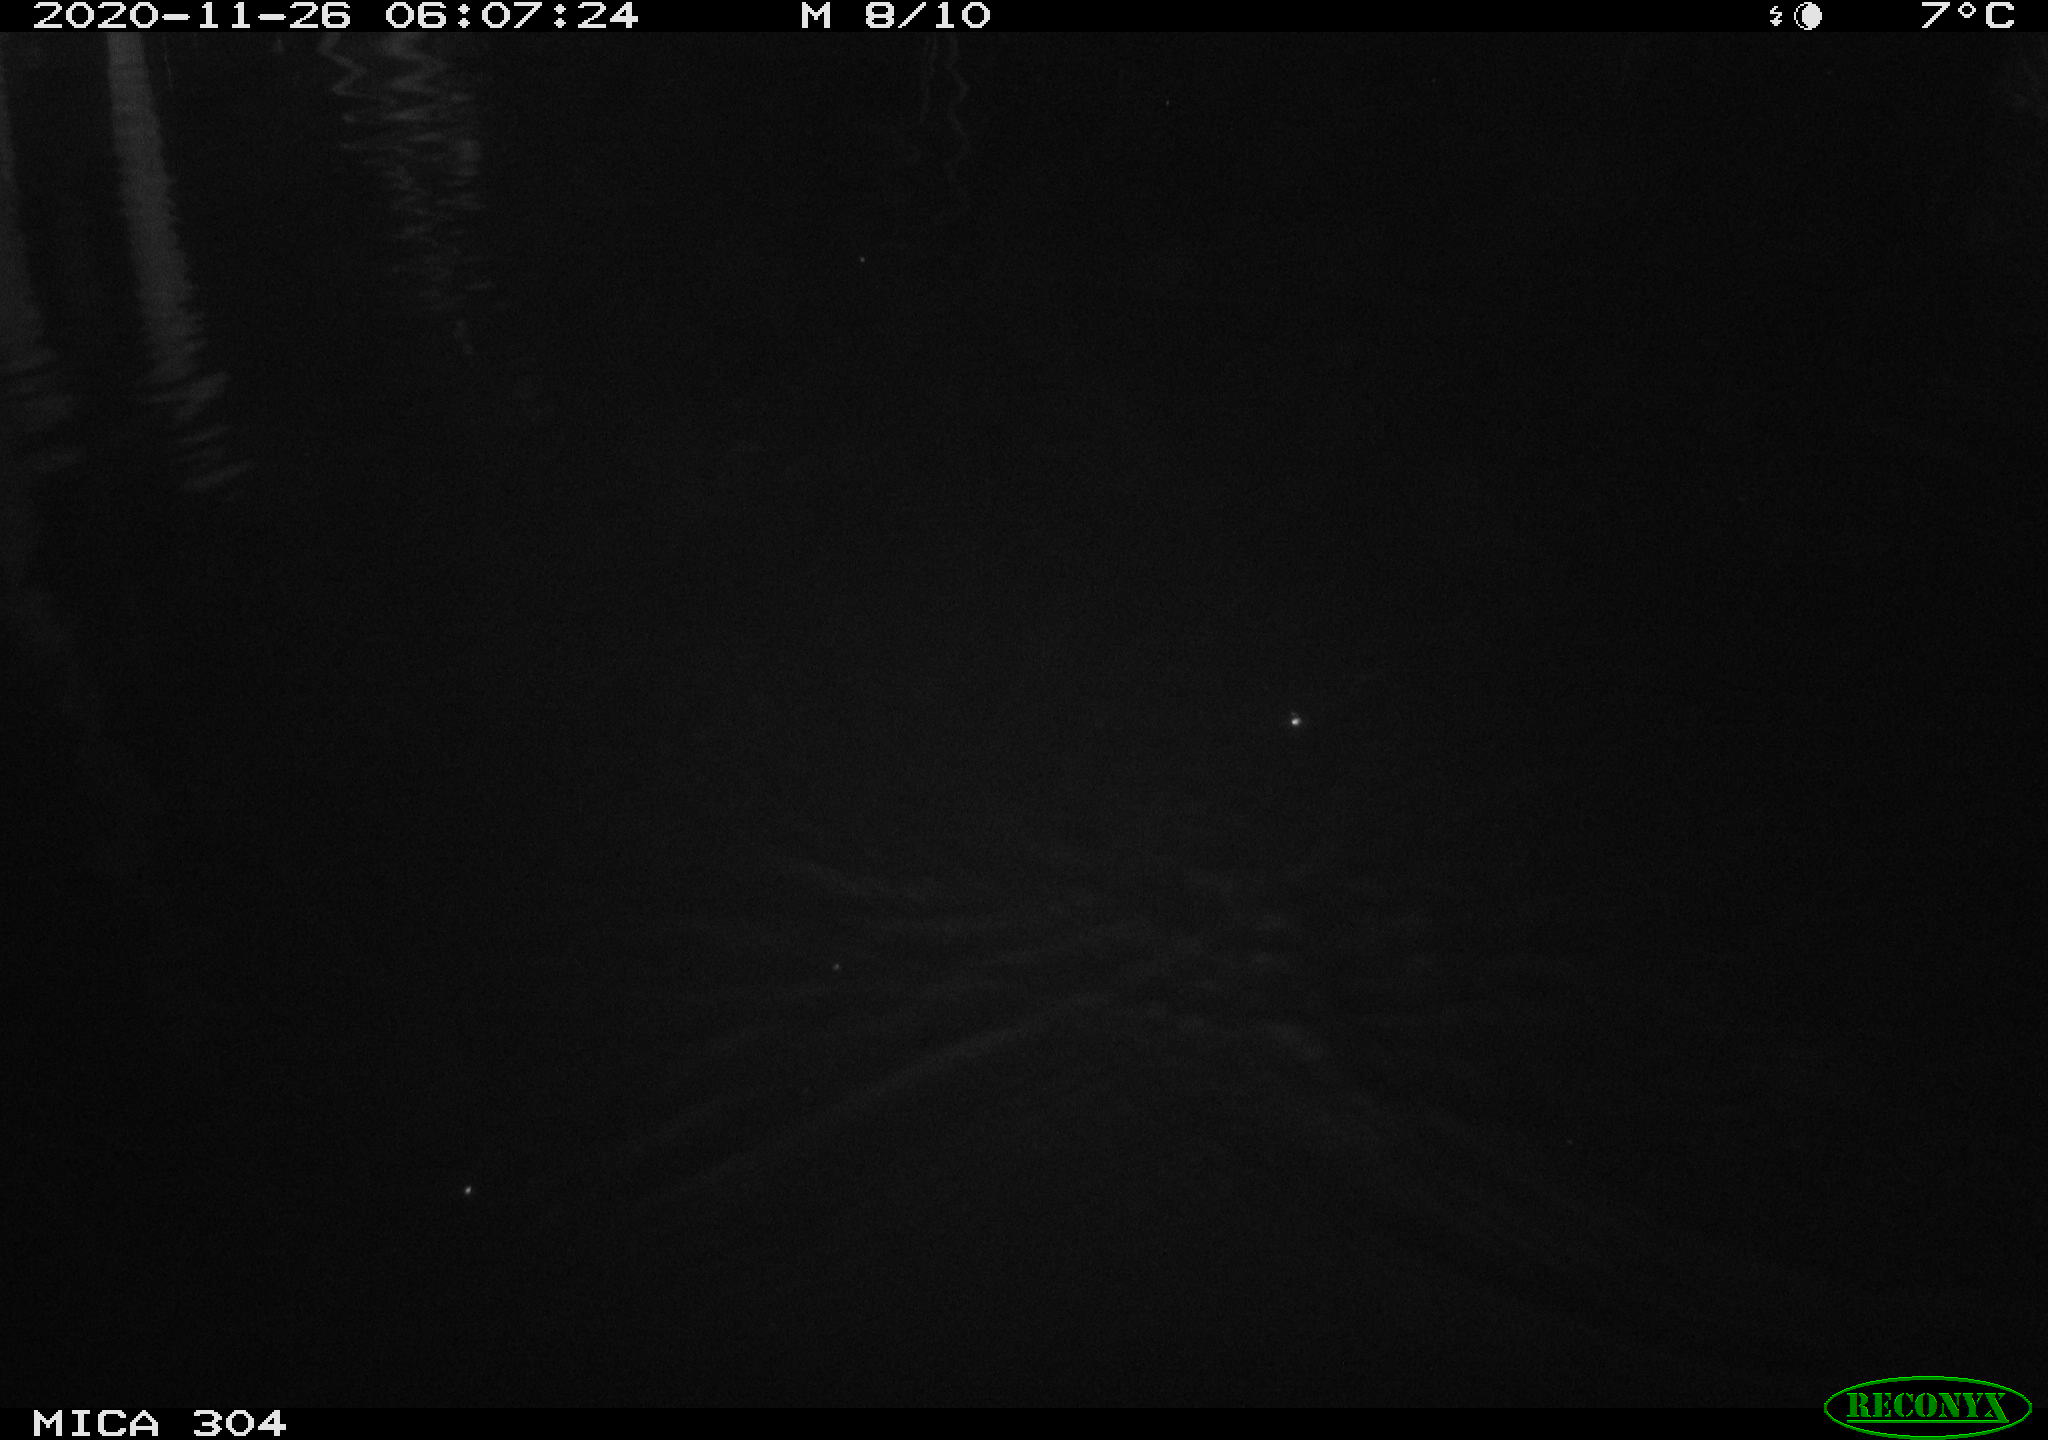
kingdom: Animalia
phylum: Chordata
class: Mammalia
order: Rodentia
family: Muridae
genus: Rattus
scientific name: Rattus norvegicus
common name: Brown rat
